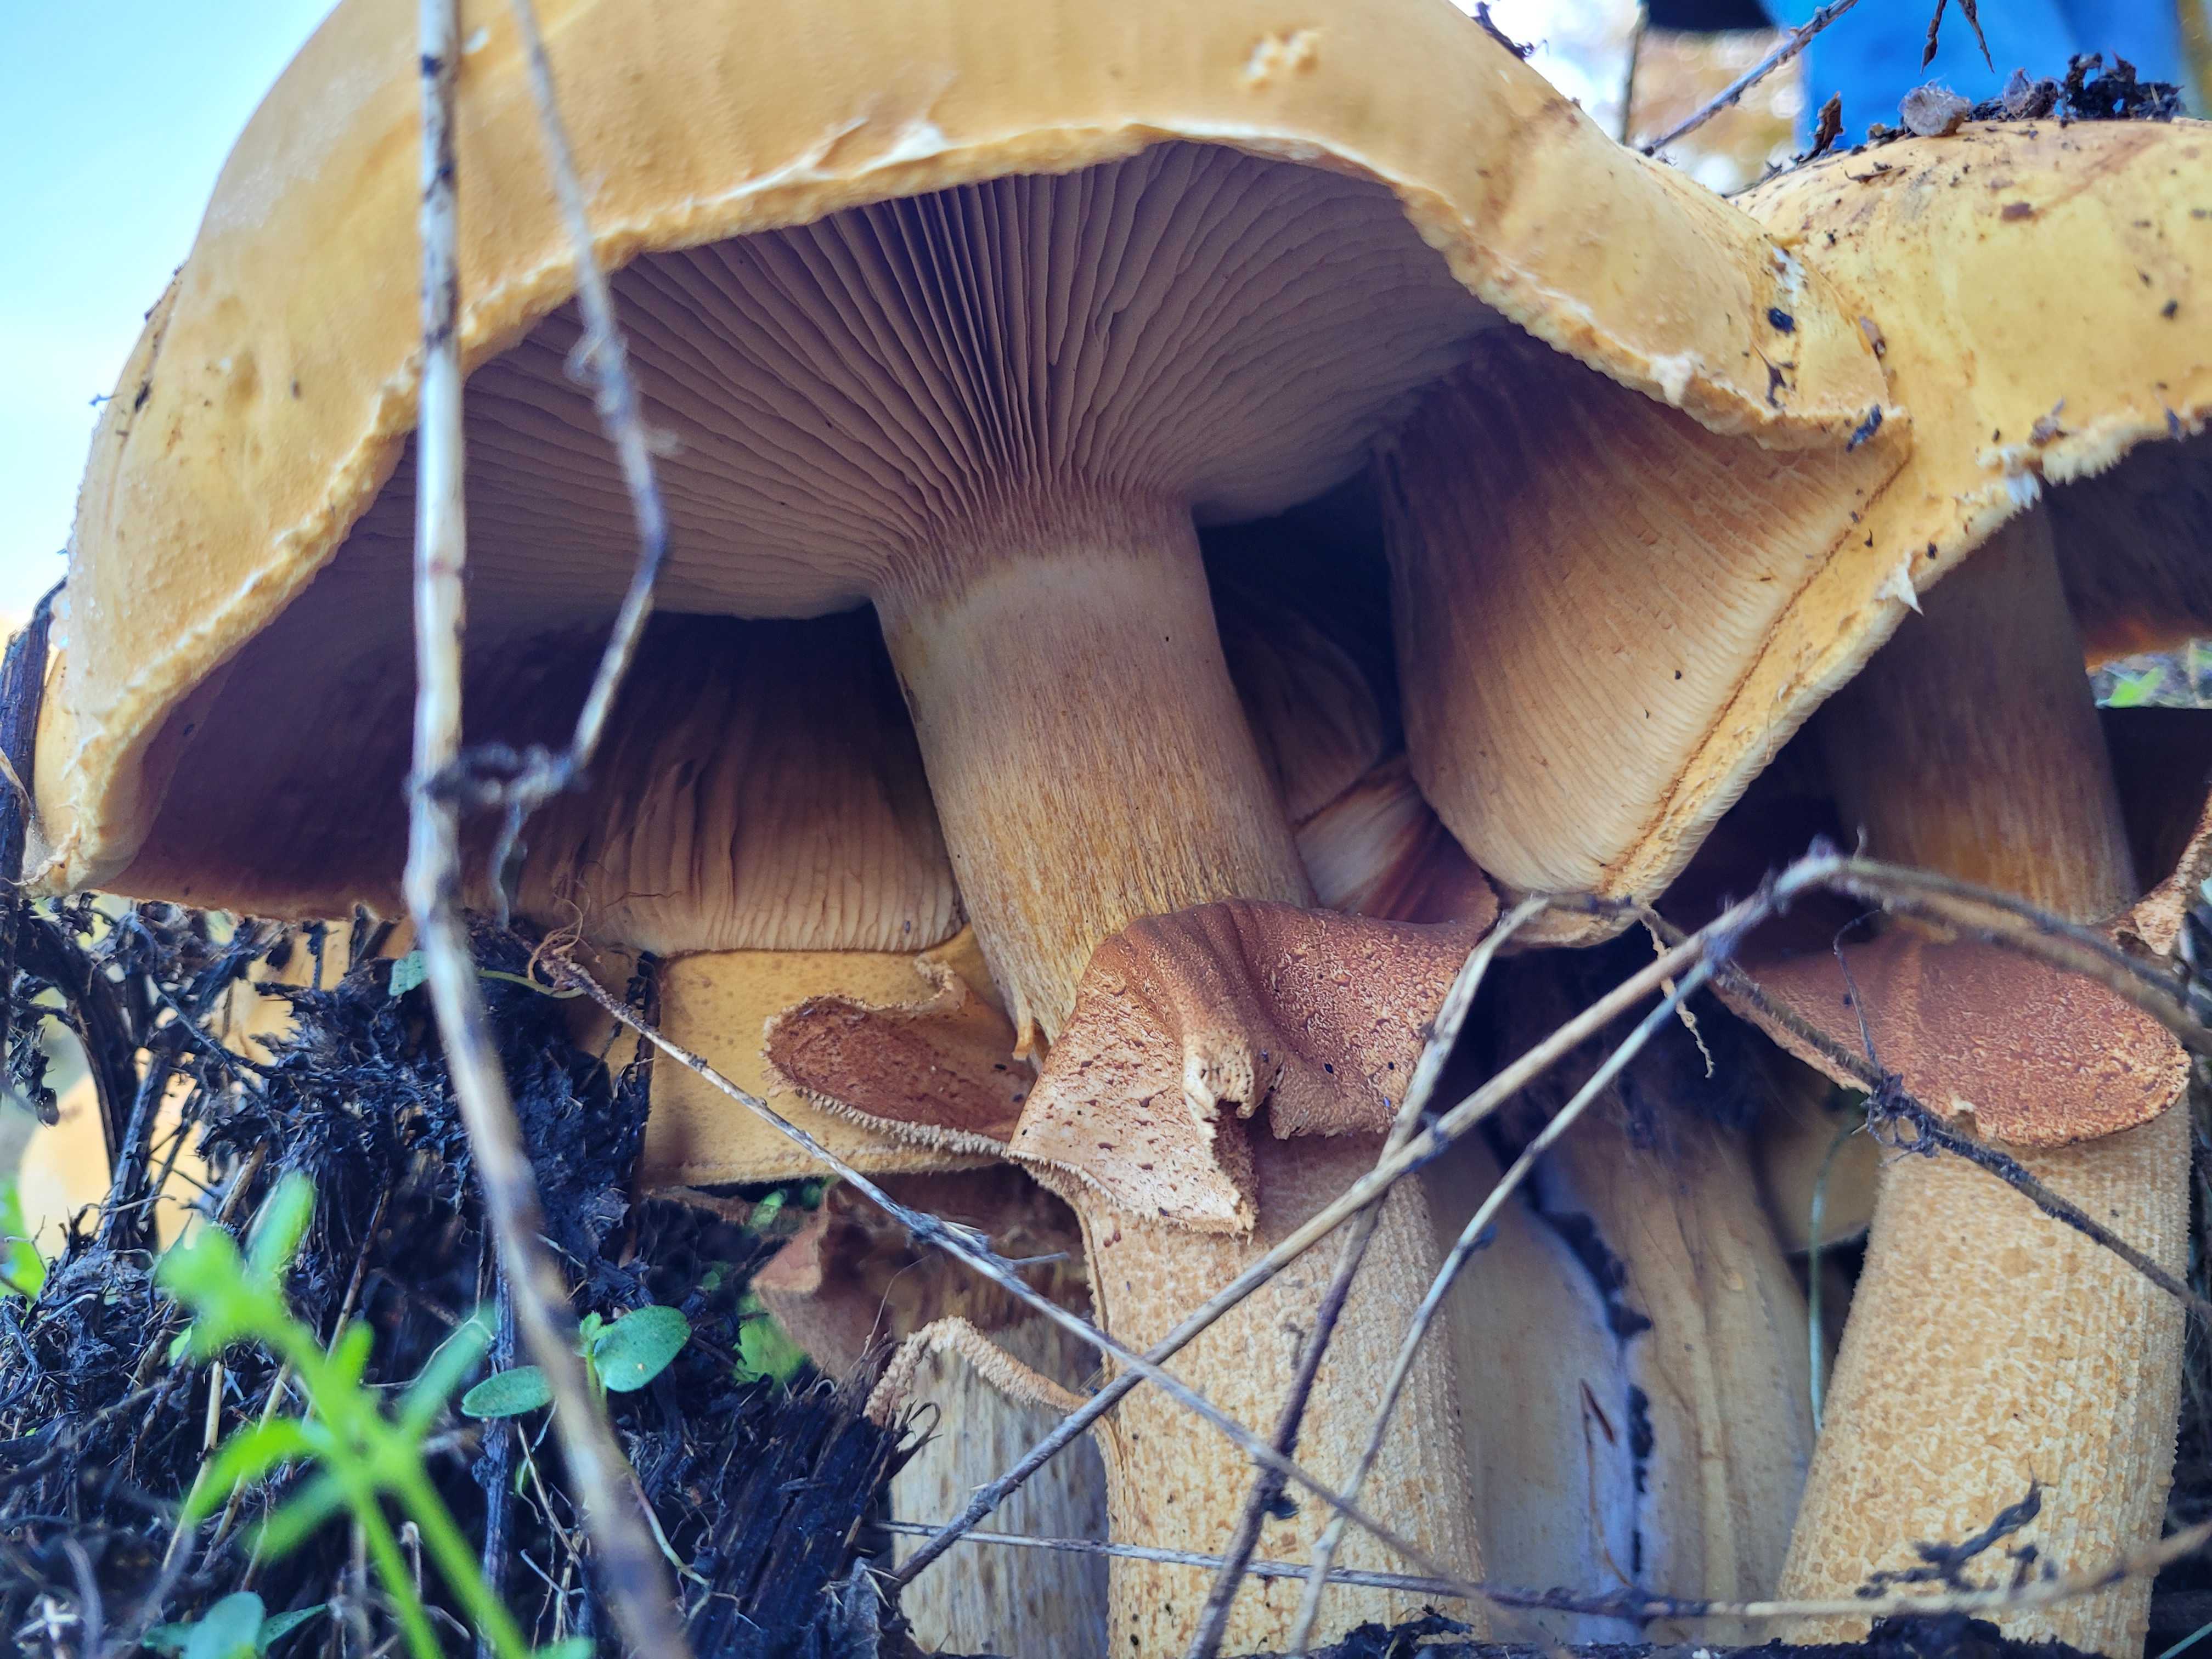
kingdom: Fungi
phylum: Basidiomycota
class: Agaricomycetes
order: Agaricales
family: Tricholomataceae
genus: Phaeolepiota
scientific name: Phaeolepiota aurea
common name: gyldenhat
